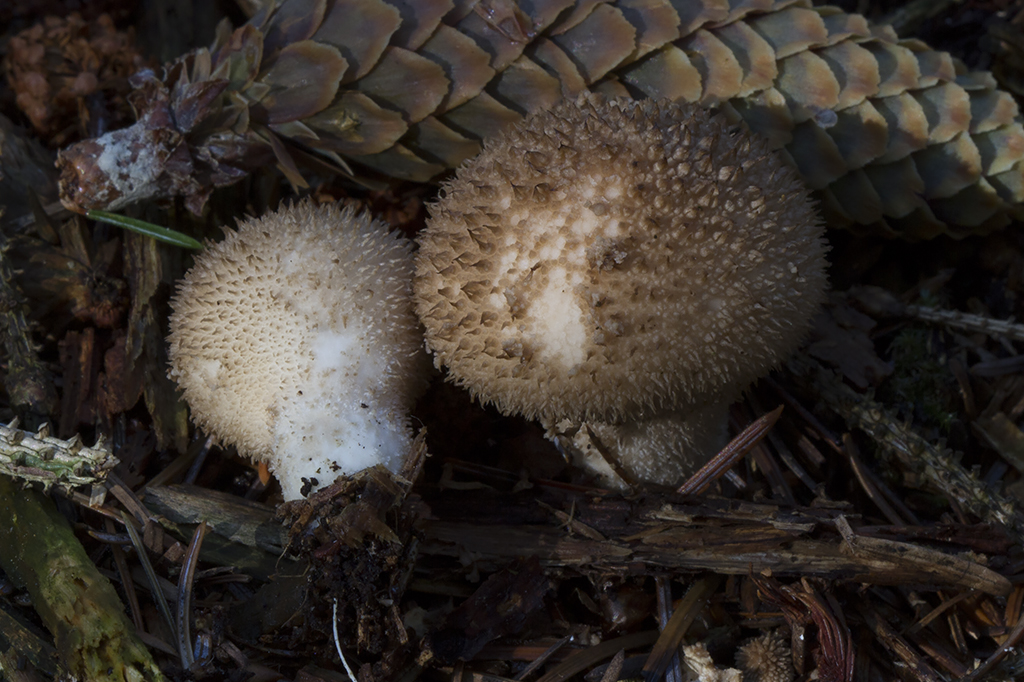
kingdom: Fungi
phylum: Basidiomycota
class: Agaricomycetes
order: Agaricales
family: Lycoperdaceae
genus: Lycoperdon
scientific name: Lycoperdon nigrescens
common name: sortagtig støvbold
